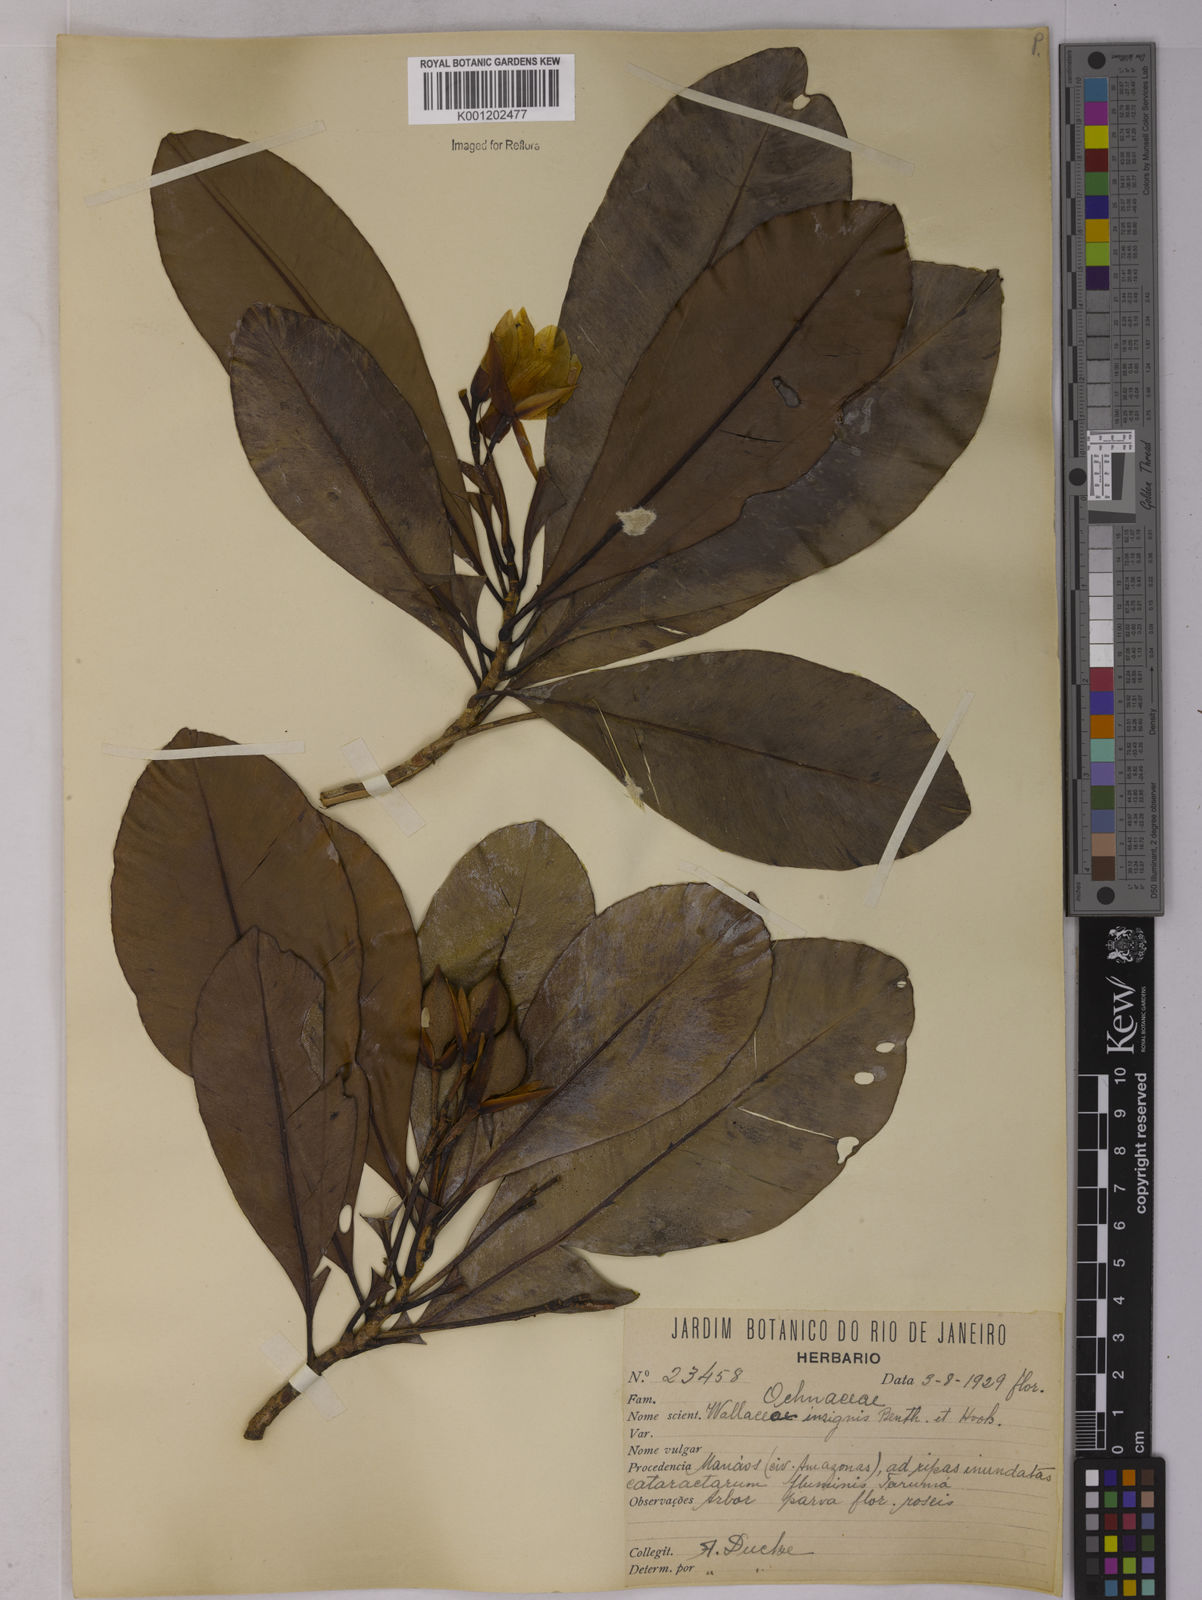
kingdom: Plantae
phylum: Tracheophyta
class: Magnoliopsida
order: Malpighiales
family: Ochnaceae
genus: Wallacea
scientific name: Wallacea insignis
